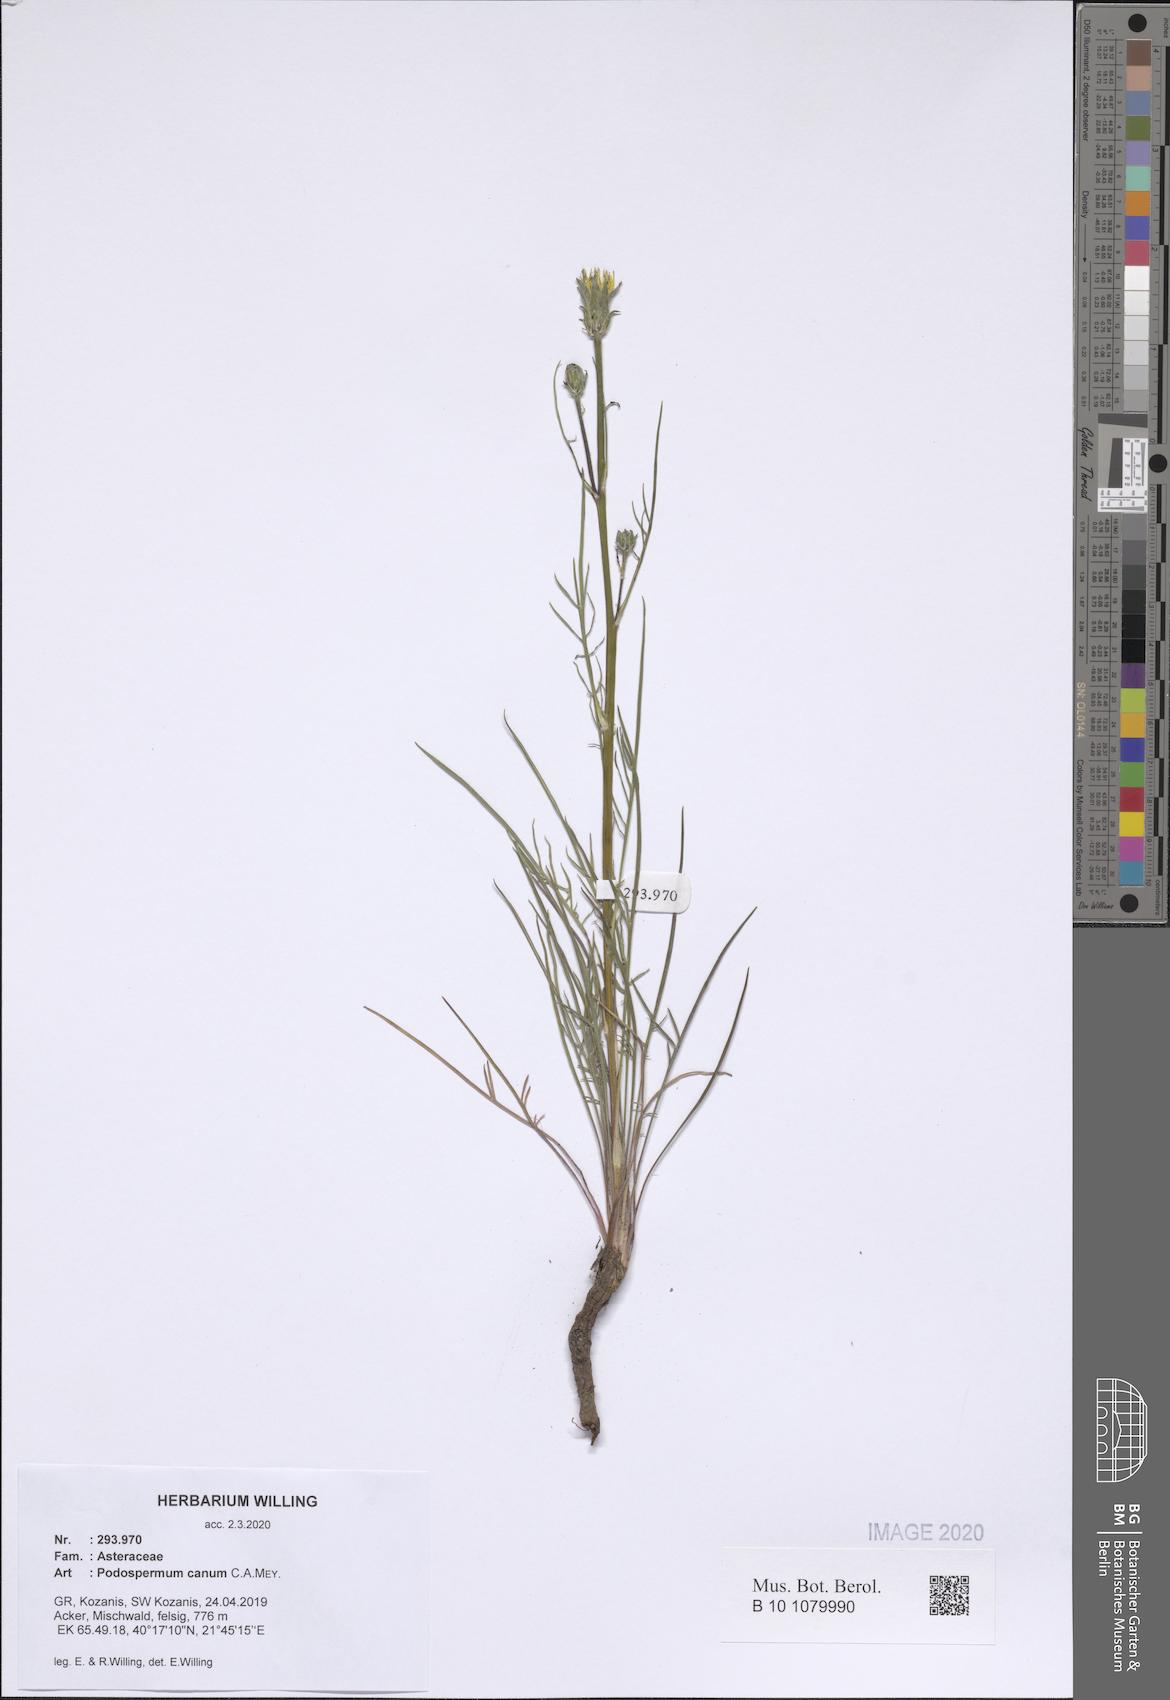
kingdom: Plantae
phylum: Tracheophyta
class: Magnoliopsida
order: Asterales
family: Asteraceae
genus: Scorzonera
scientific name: Scorzonera cana
